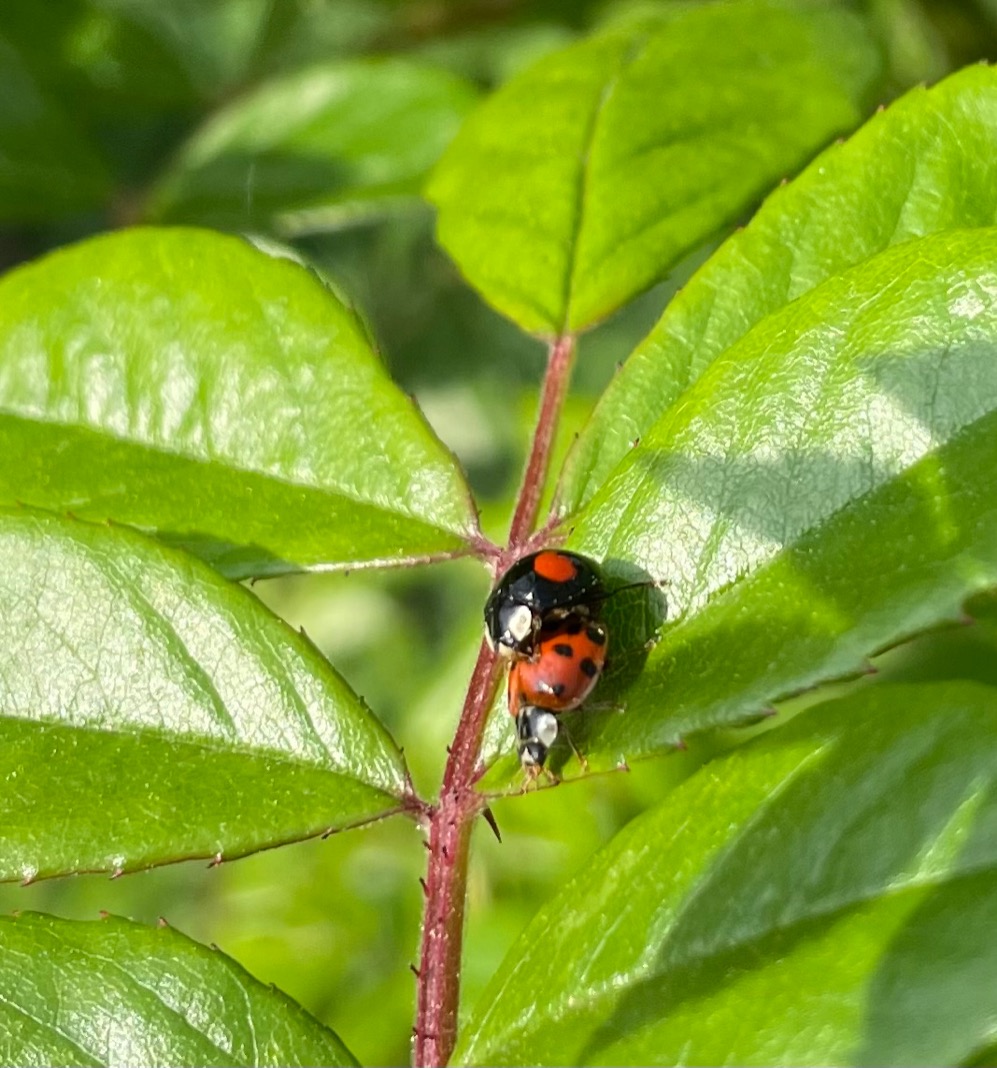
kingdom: Animalia
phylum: Arthropoda
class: Insecta
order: Coleoptera
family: Coccinellidae
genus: Harmonia
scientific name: Harmonia axyridis
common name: Harlekinmariehøne
